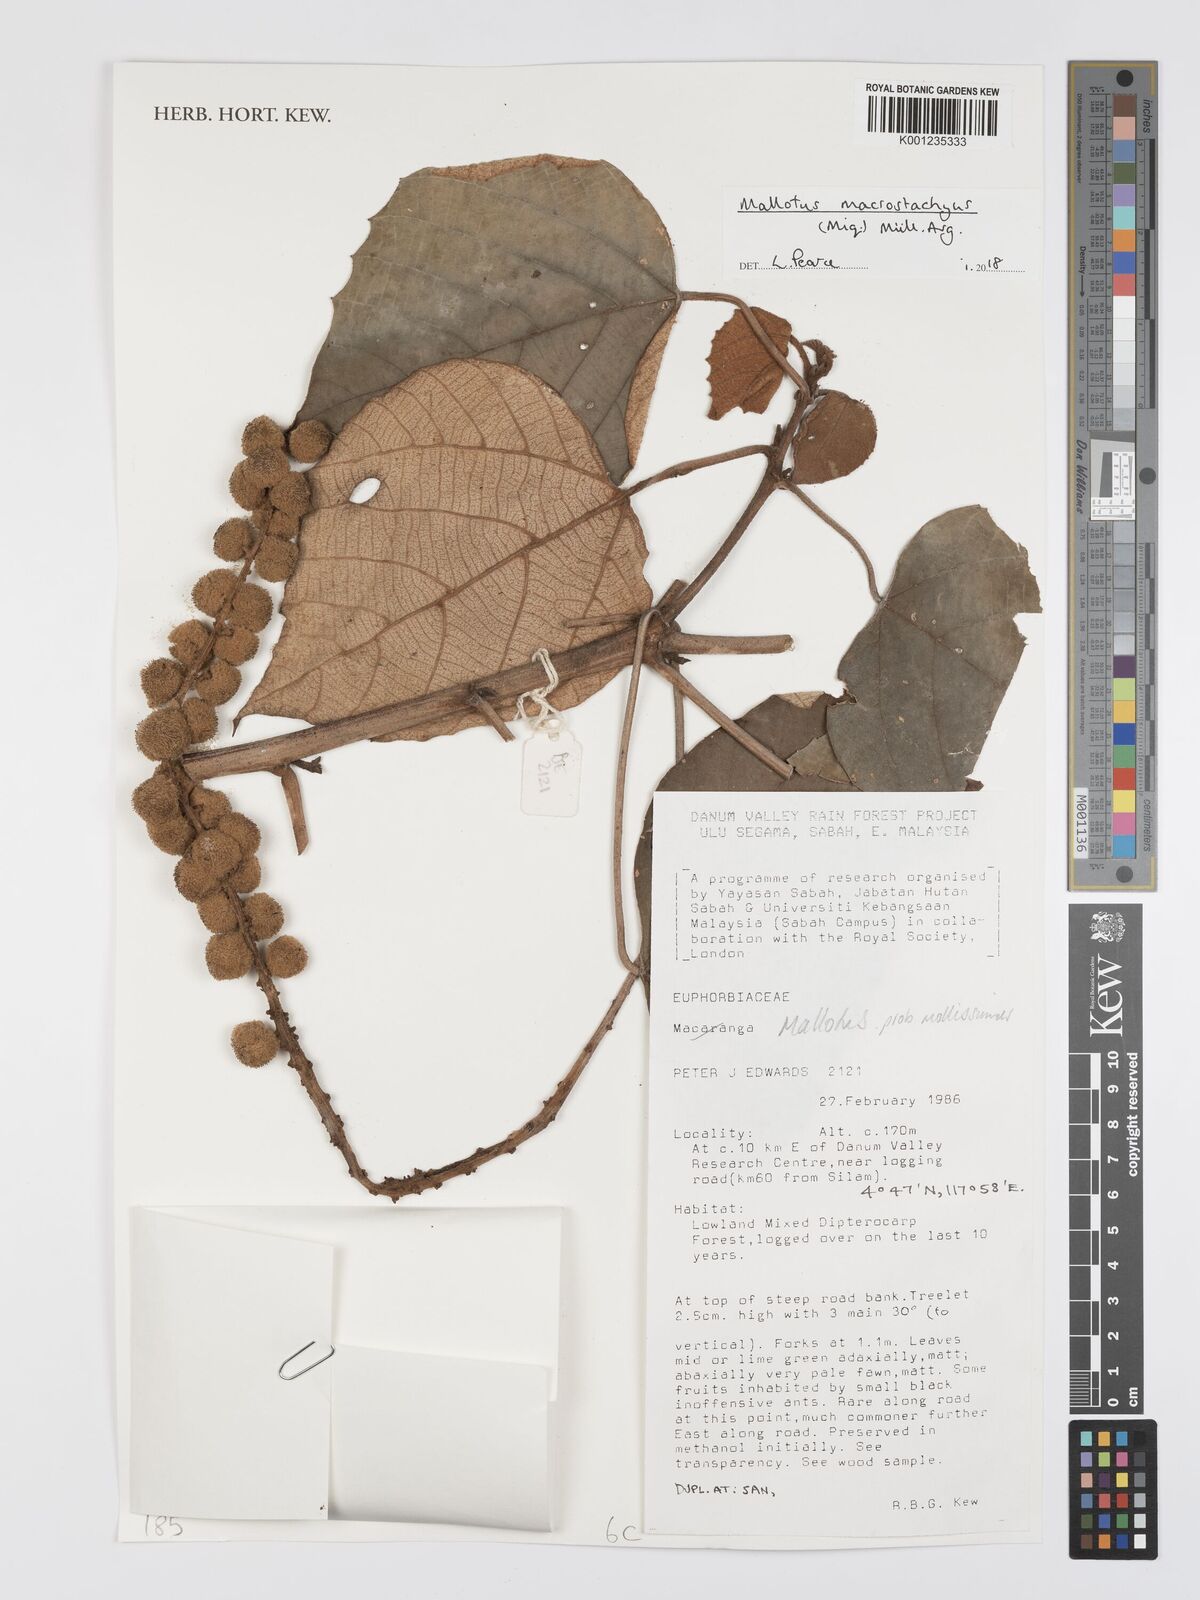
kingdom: Plantae
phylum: Tracheophyta
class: Magnoliopsida
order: Malpighiales
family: Euphorbiaceae
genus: Mallotus
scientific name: Mallotus macrostachyus
